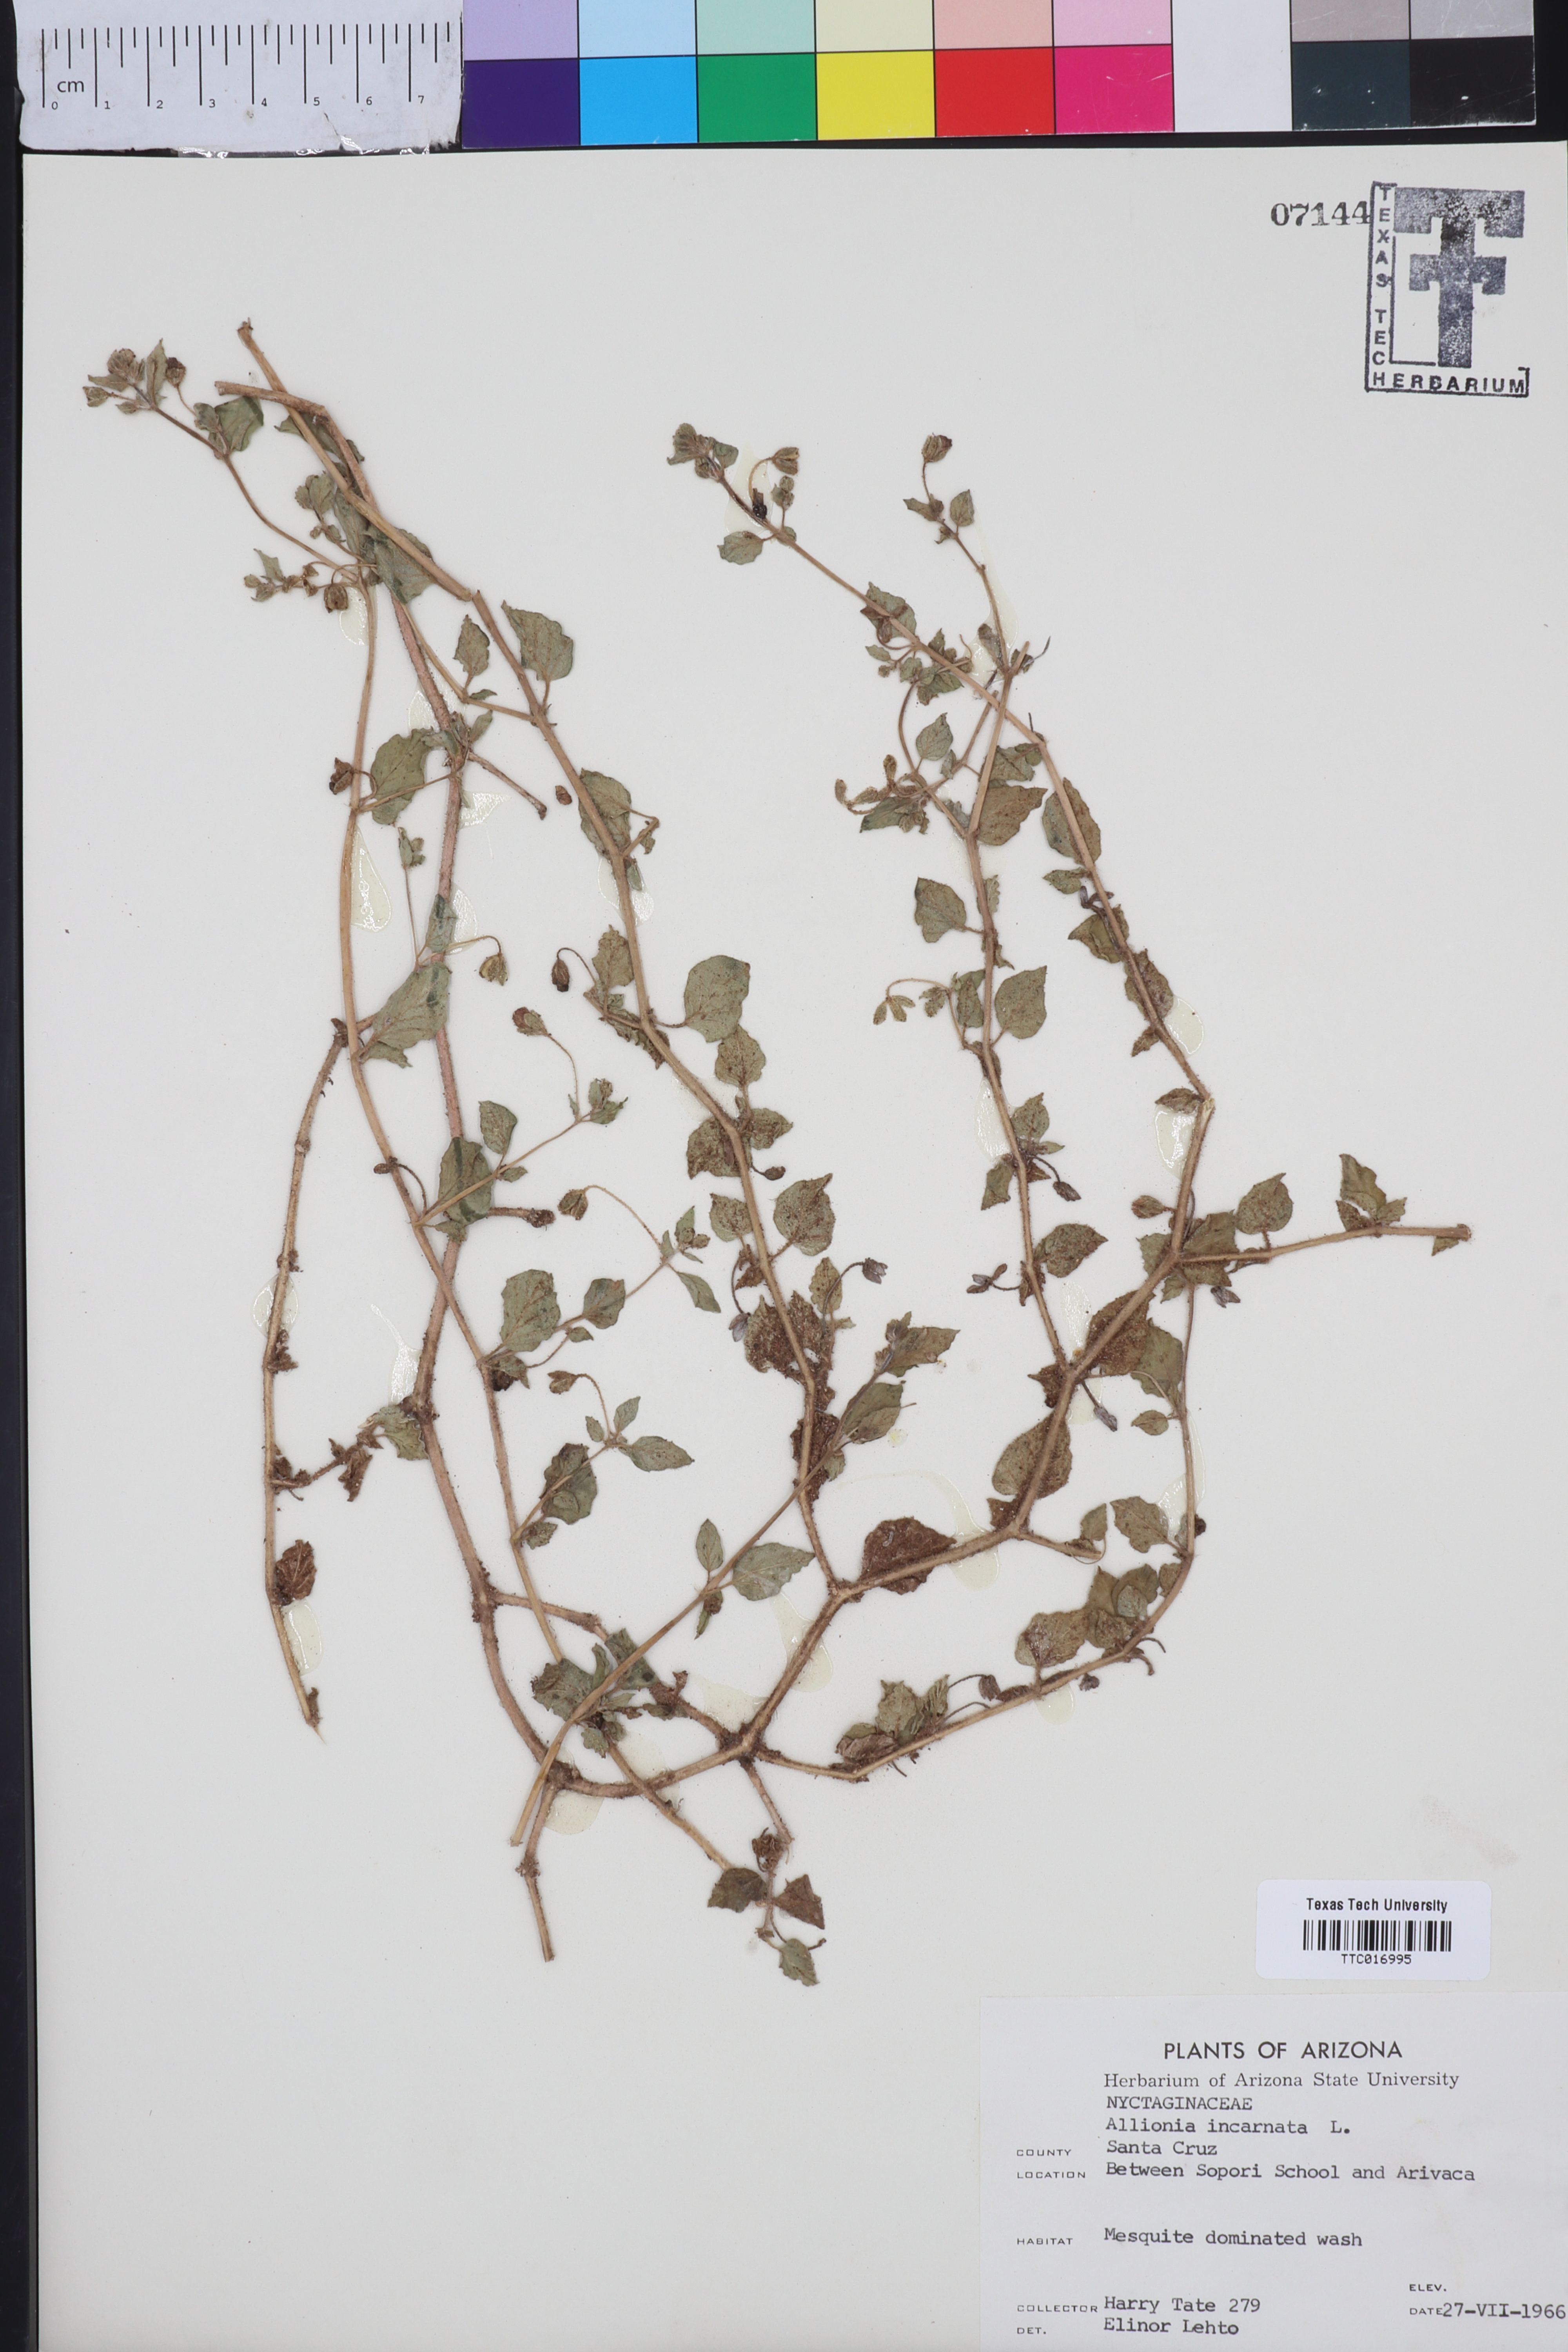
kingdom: Plantae
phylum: Tracheophyta
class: Magnoliopsida
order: Caryophyllales
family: Nyctaginaceae
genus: Allionia
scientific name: Allionia incarnata
